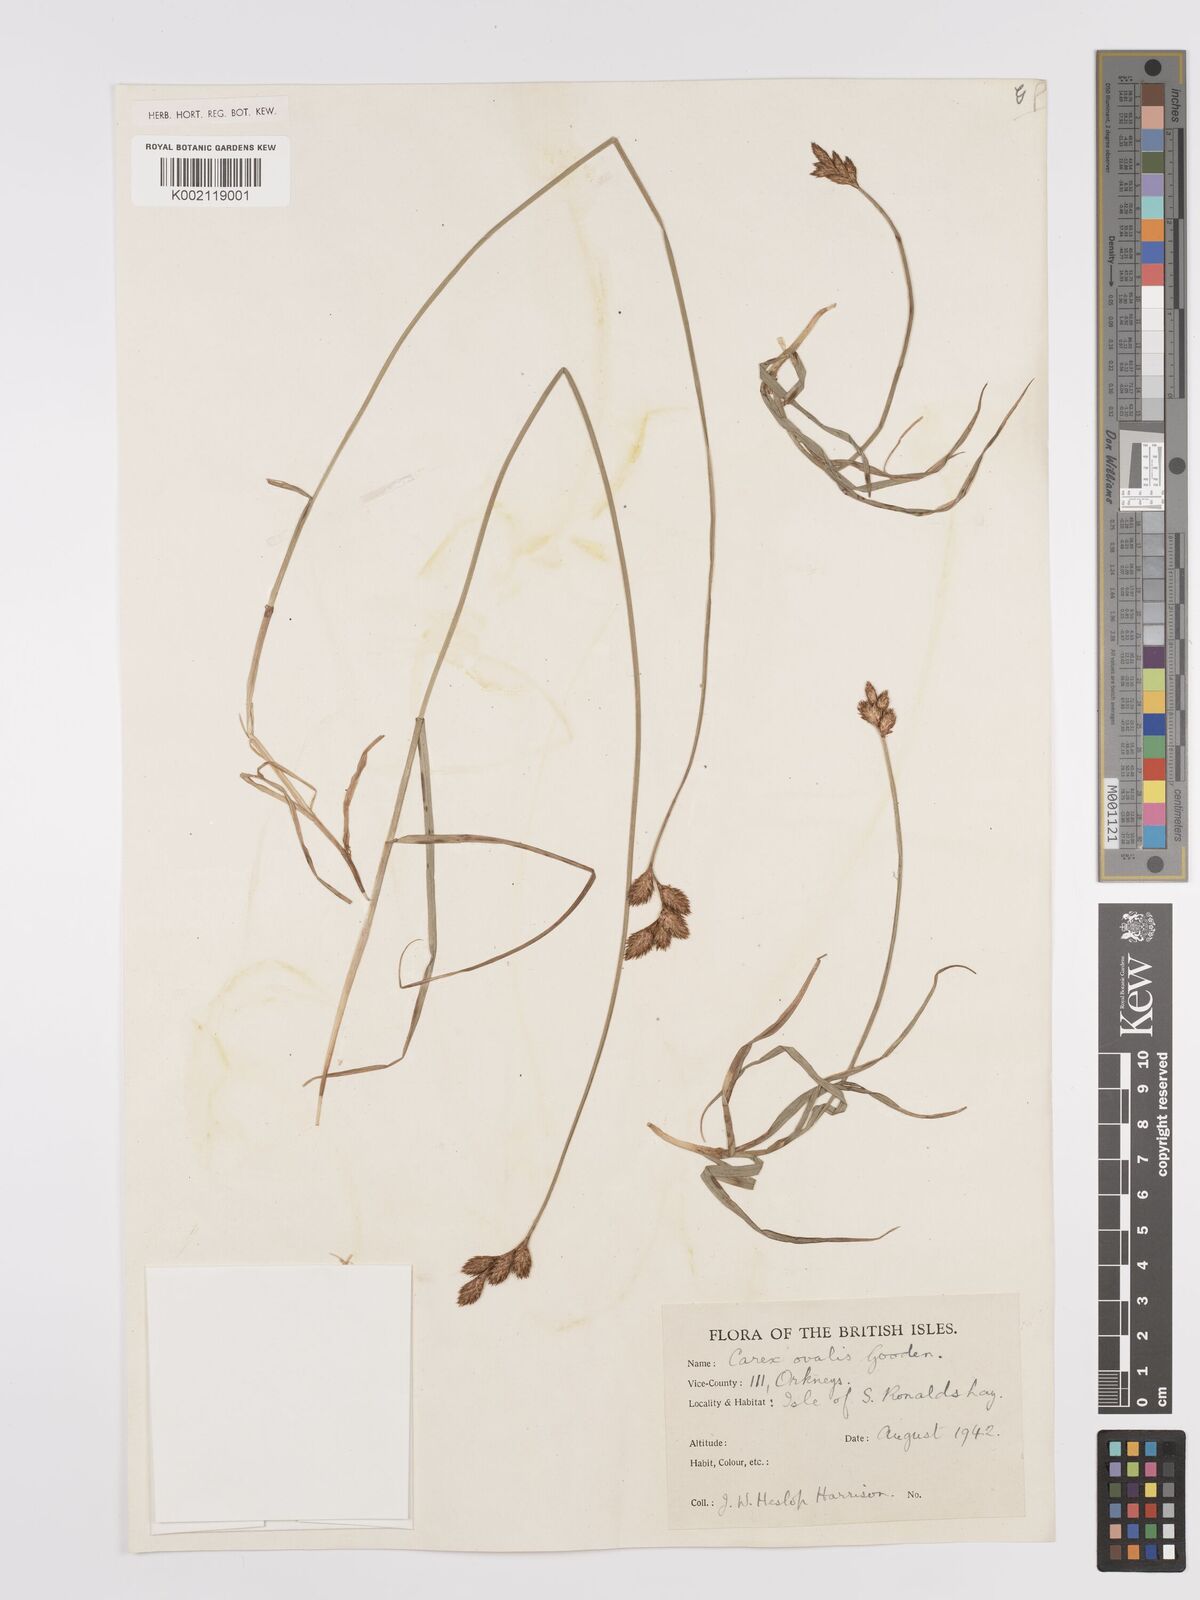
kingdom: Plantae
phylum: Tracheophyta
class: Liliopsida
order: Poales
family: Cyperaceae
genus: Carex
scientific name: Carex leporina
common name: Oval sedge
